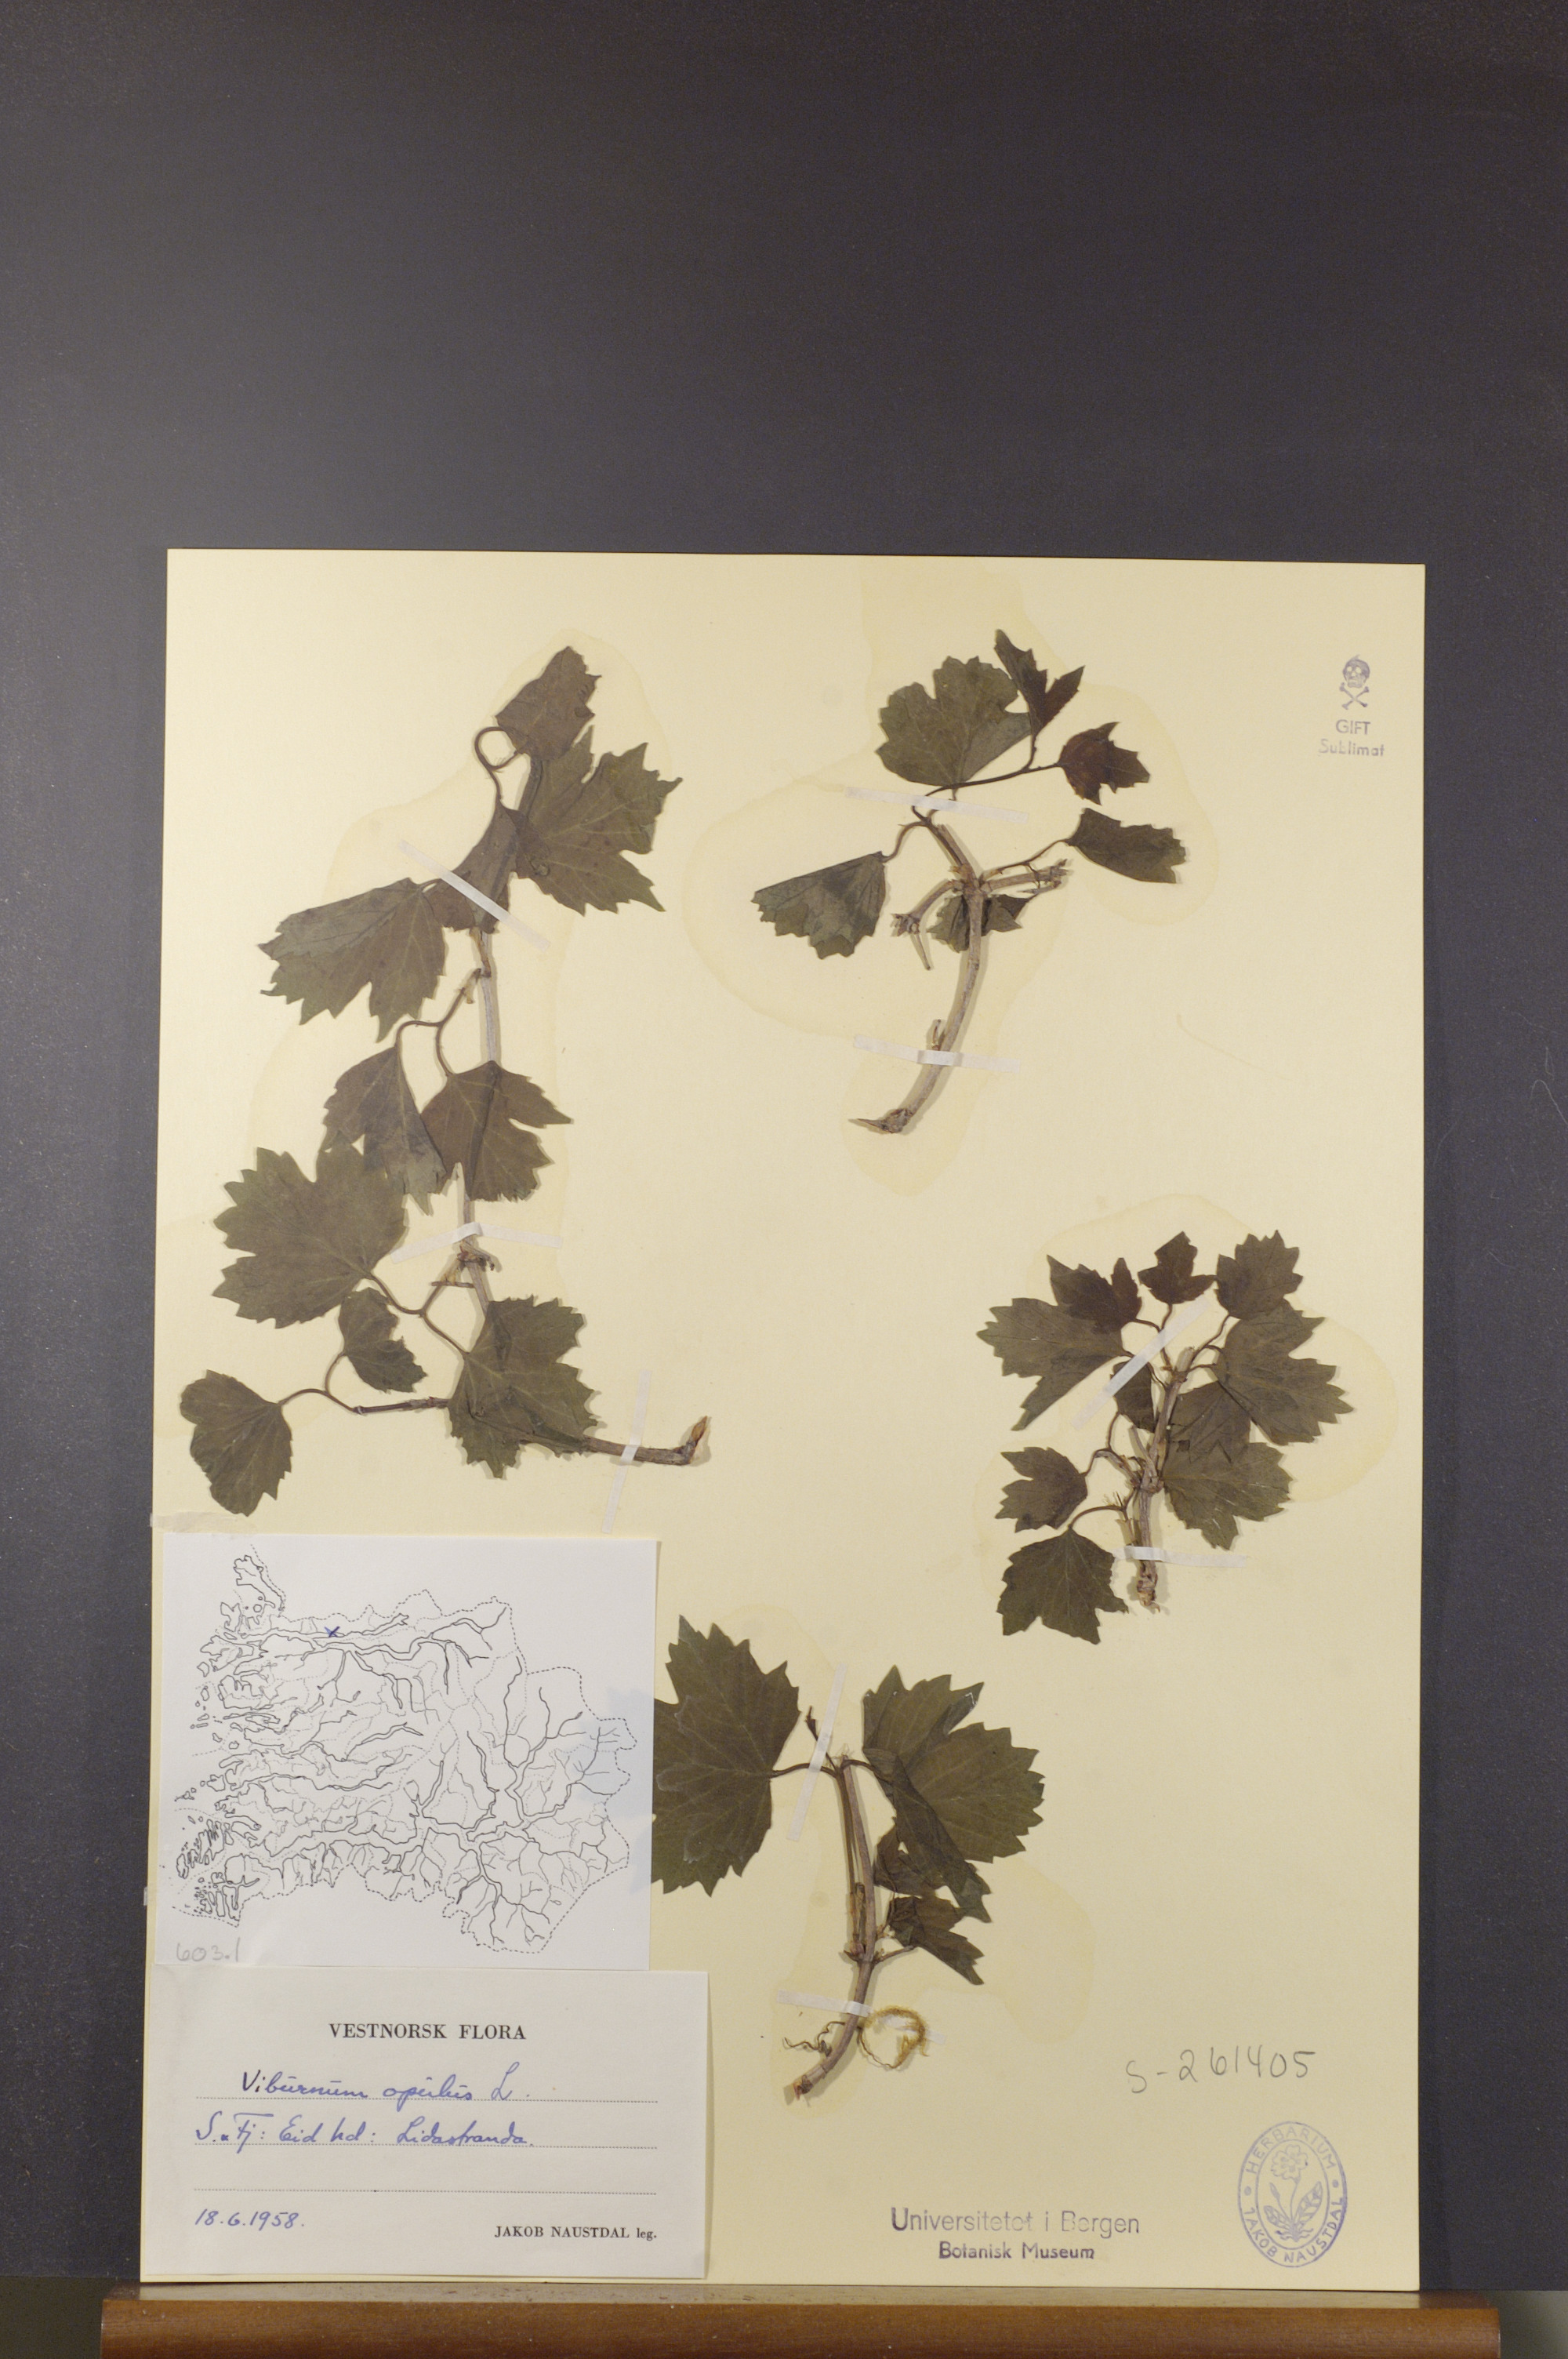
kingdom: Plantae
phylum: Tracheophyta
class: Magnoliopsida
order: Dipsacales
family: Viburnaceae
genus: Viburnum
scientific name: Viburnum opulus
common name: Guelder-rose
